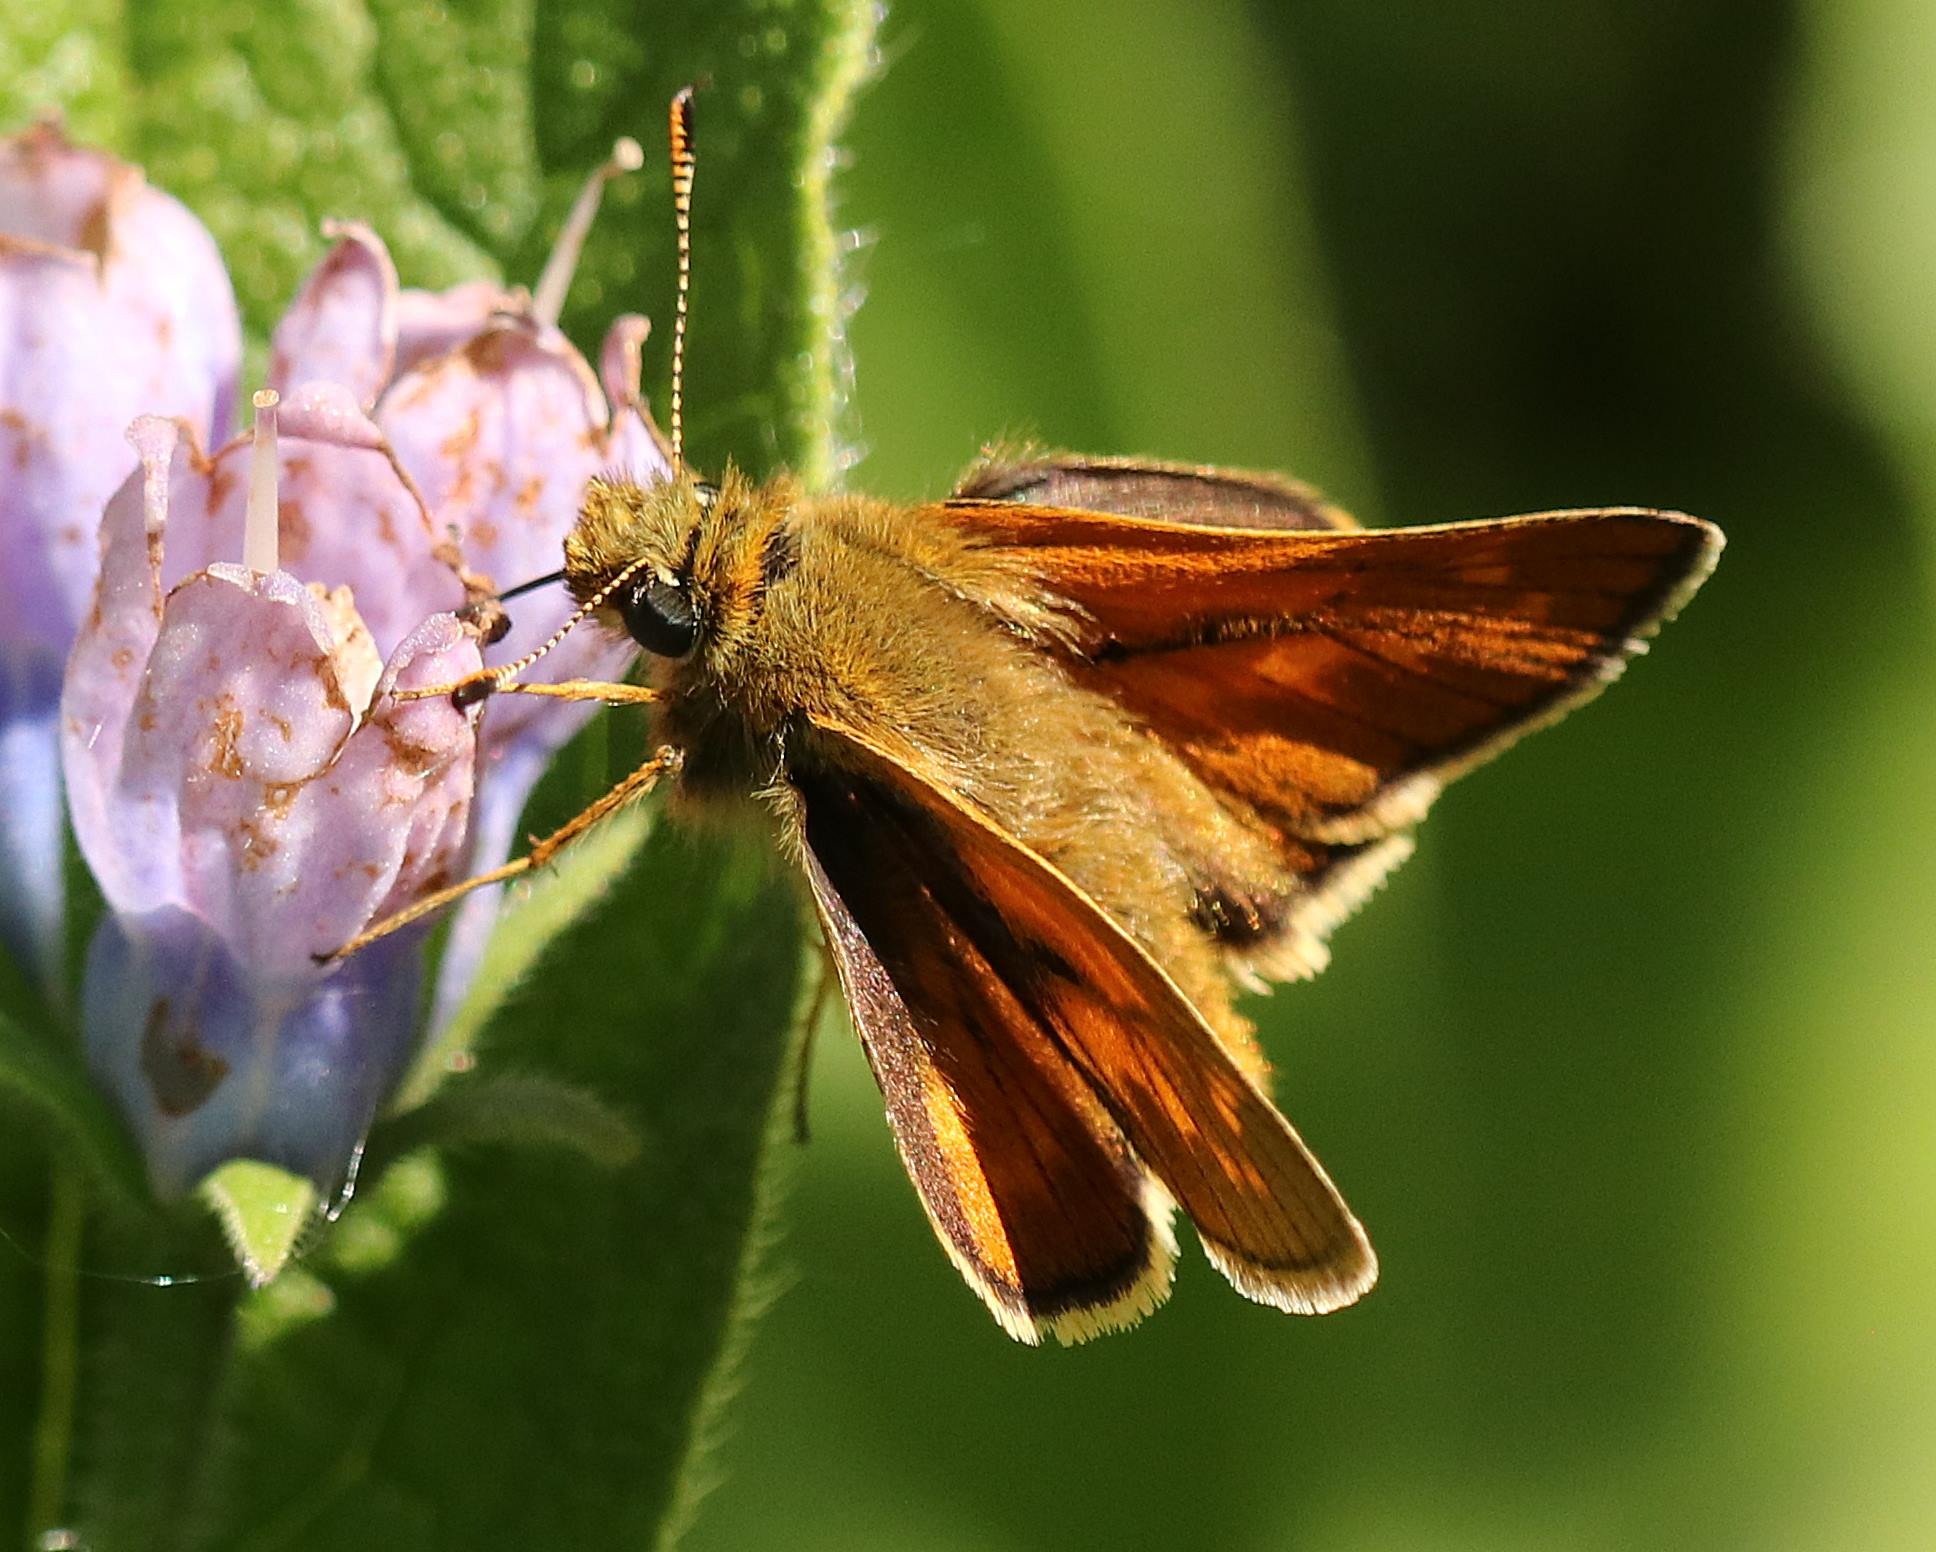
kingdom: Animalia
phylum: Arthropoda
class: Insecta
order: Lepidoptera
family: Hesperiidae
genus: Ochlodes
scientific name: Ochlodes venata
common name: Stor bredpande
